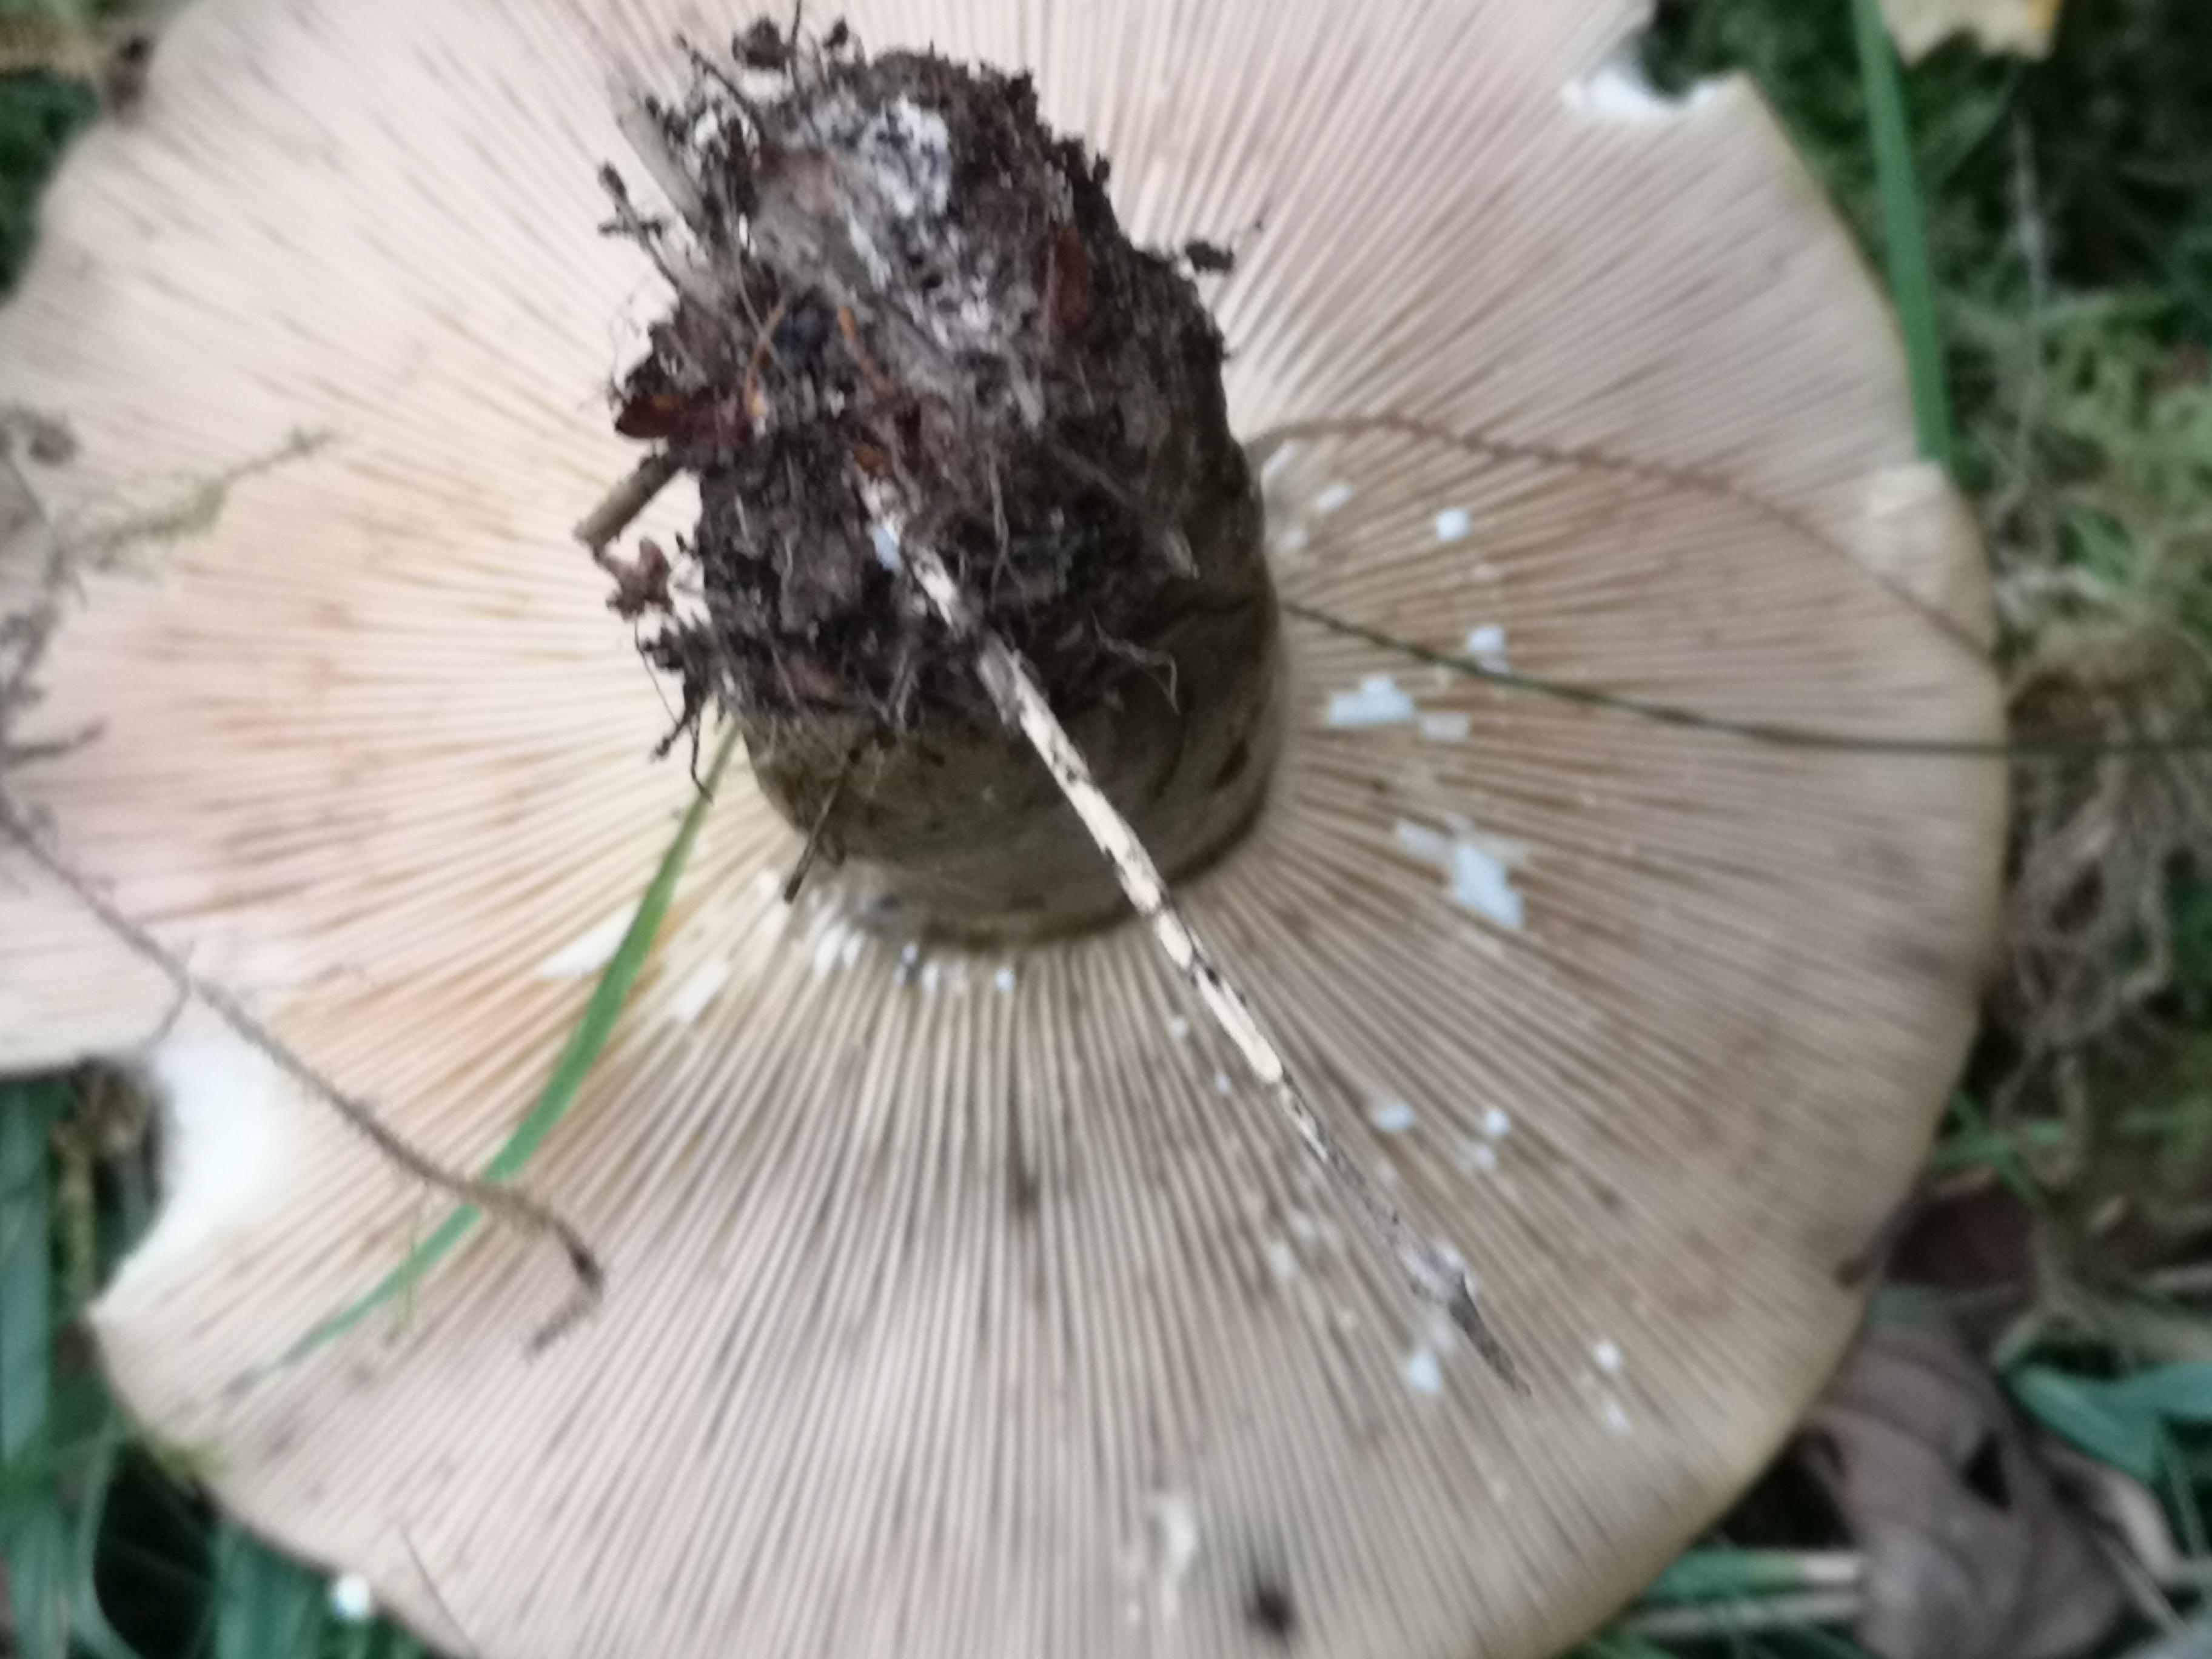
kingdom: Fungi
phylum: Basidiomycota
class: Agaricomycetes
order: Russulales
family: Russulaceae
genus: Lactarius
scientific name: Lactarius necator
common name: manddraber-mælkehat
